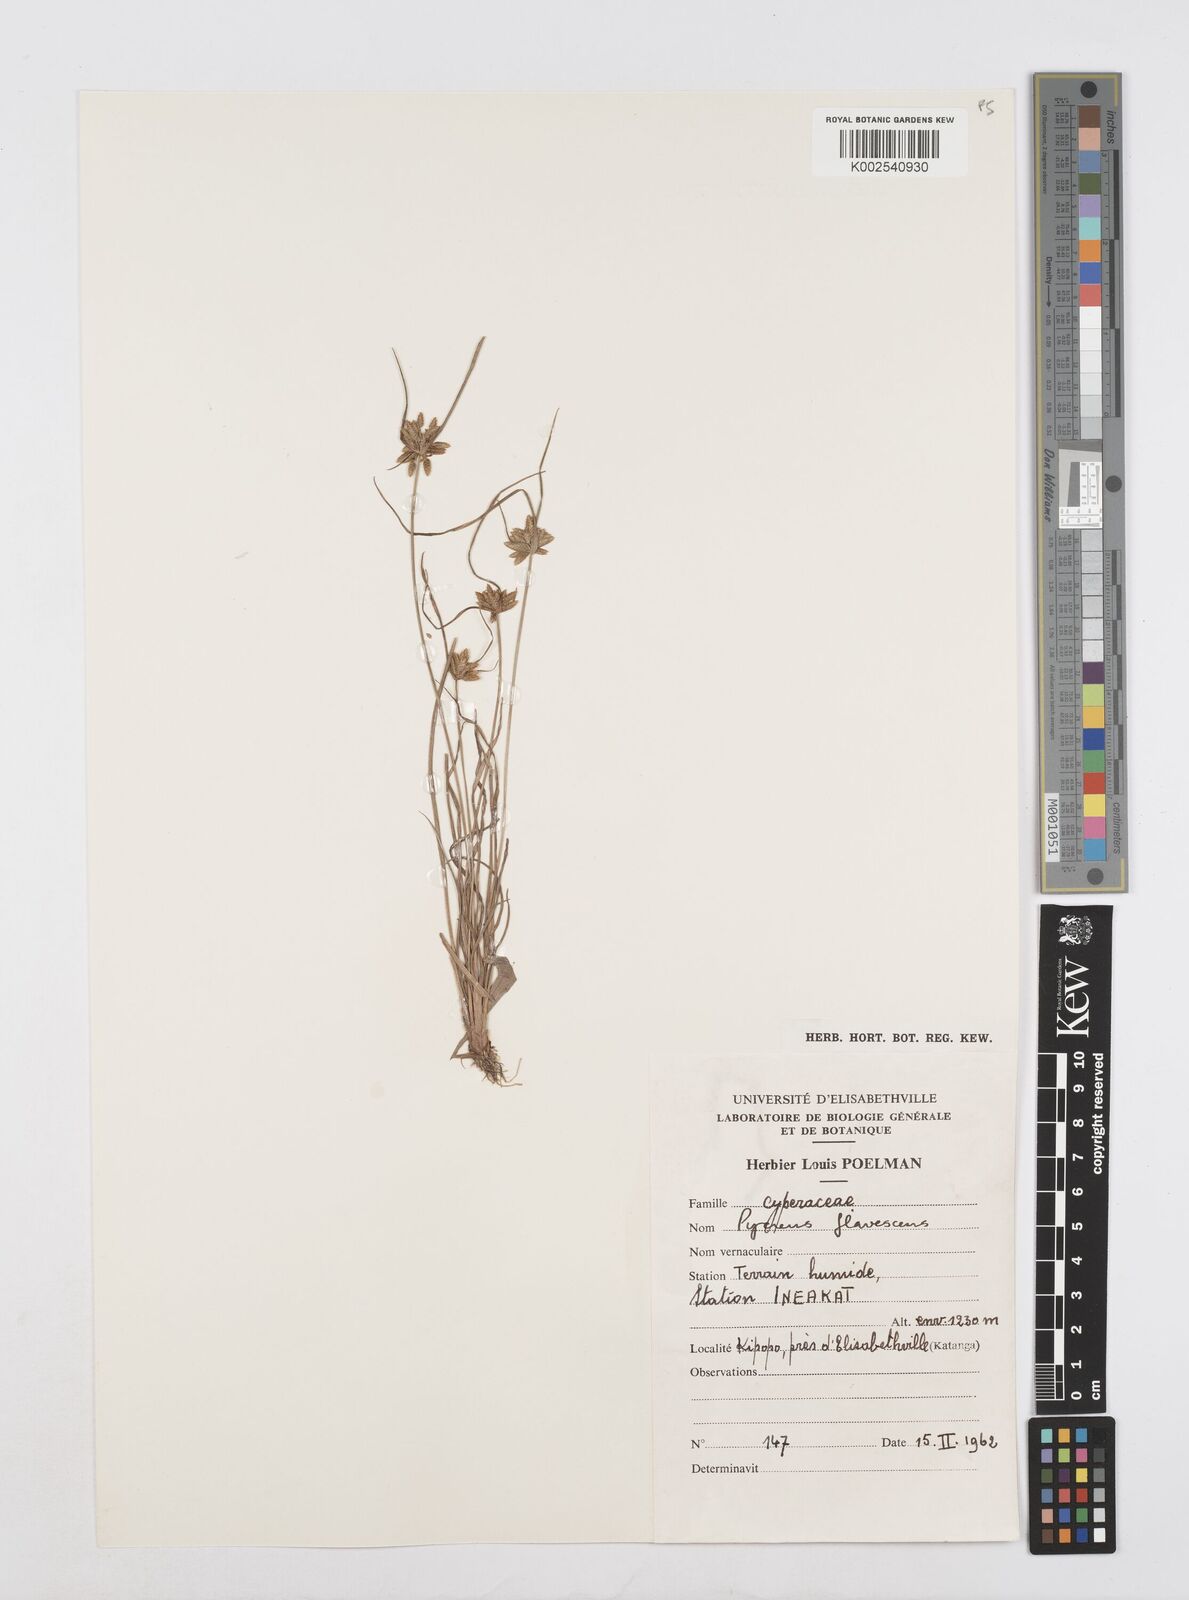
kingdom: Plantae
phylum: Tracheophyta
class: Liliopsida
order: Poales
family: Cyperaceae
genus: Cyperus
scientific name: Cyperus flavescens
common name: Yellow galingale
